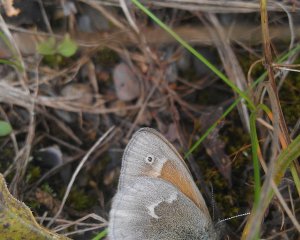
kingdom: Animalia
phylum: Arthropoda
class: Insecta
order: Lepidoptera
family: Nymphalidae
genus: Coenonympha
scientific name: Coenonympha tullia
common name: Large Heath
